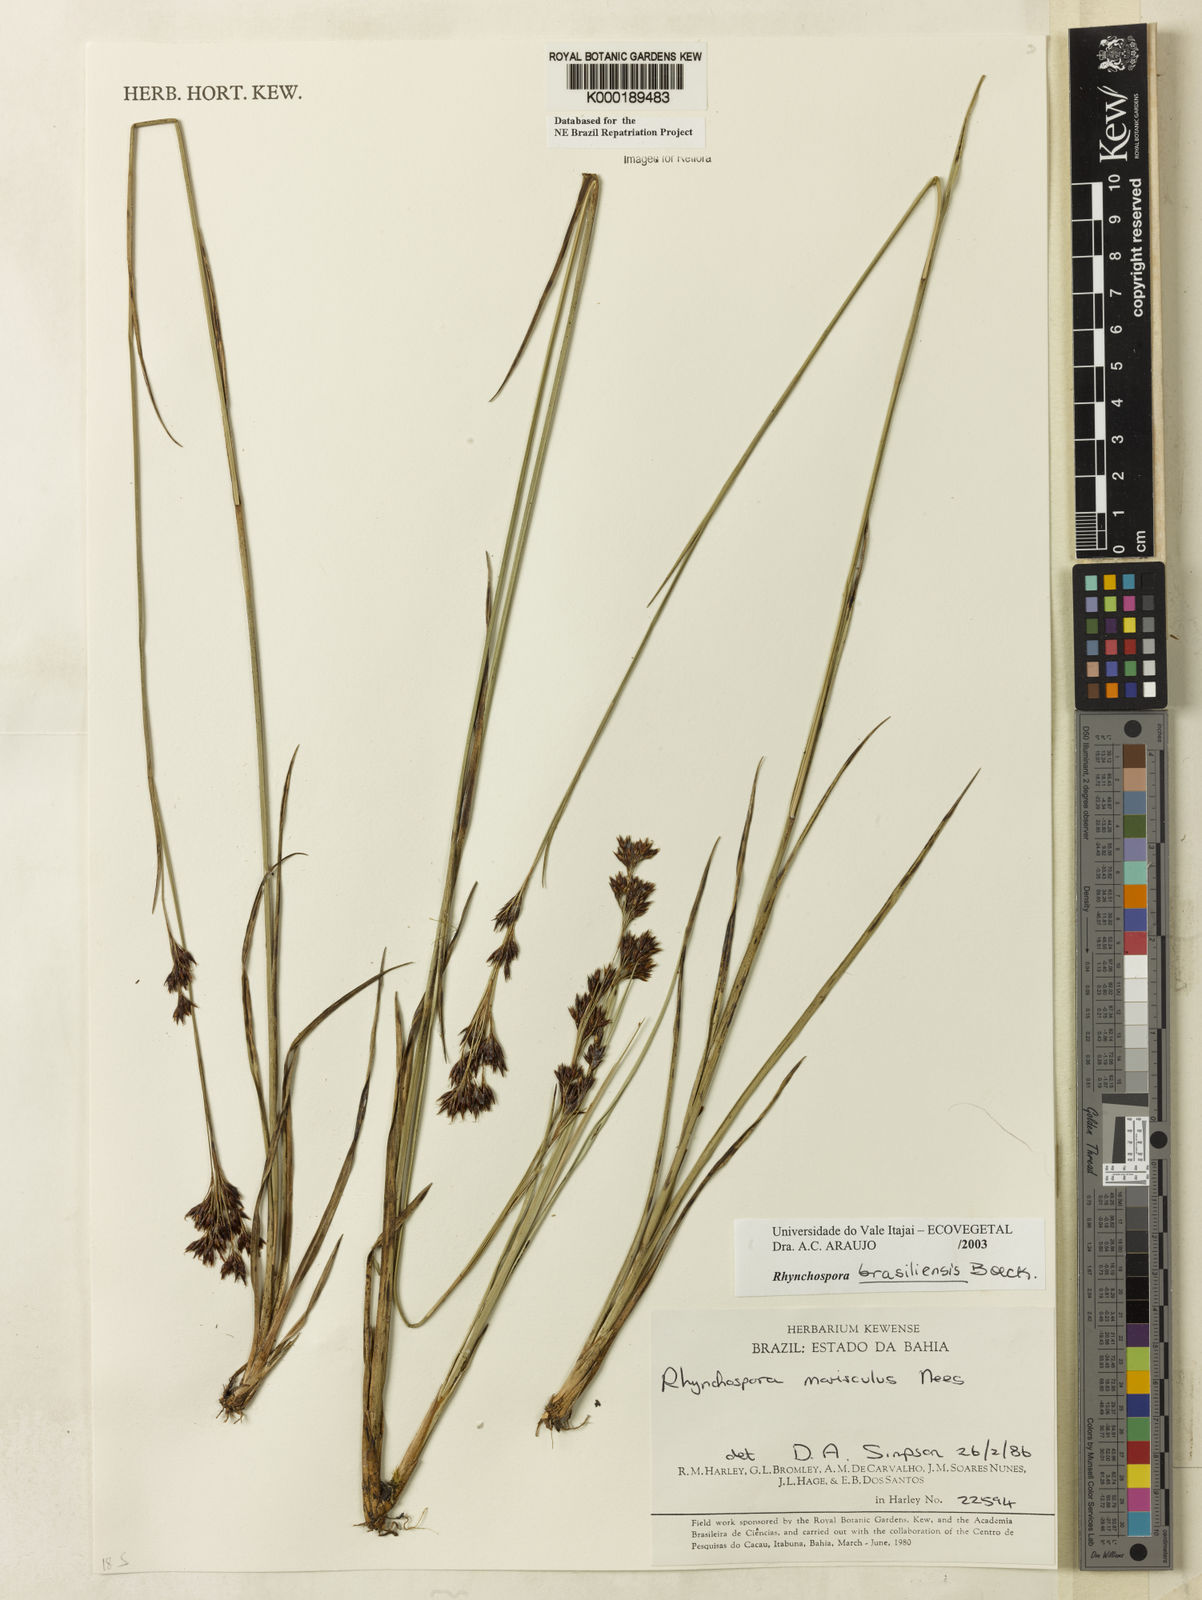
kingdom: Plantae
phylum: Tracheophyta
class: Liliopsida
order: Poales
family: Cyperaceae
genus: Rhynchospora
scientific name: Rhynchospora brasiliensis
